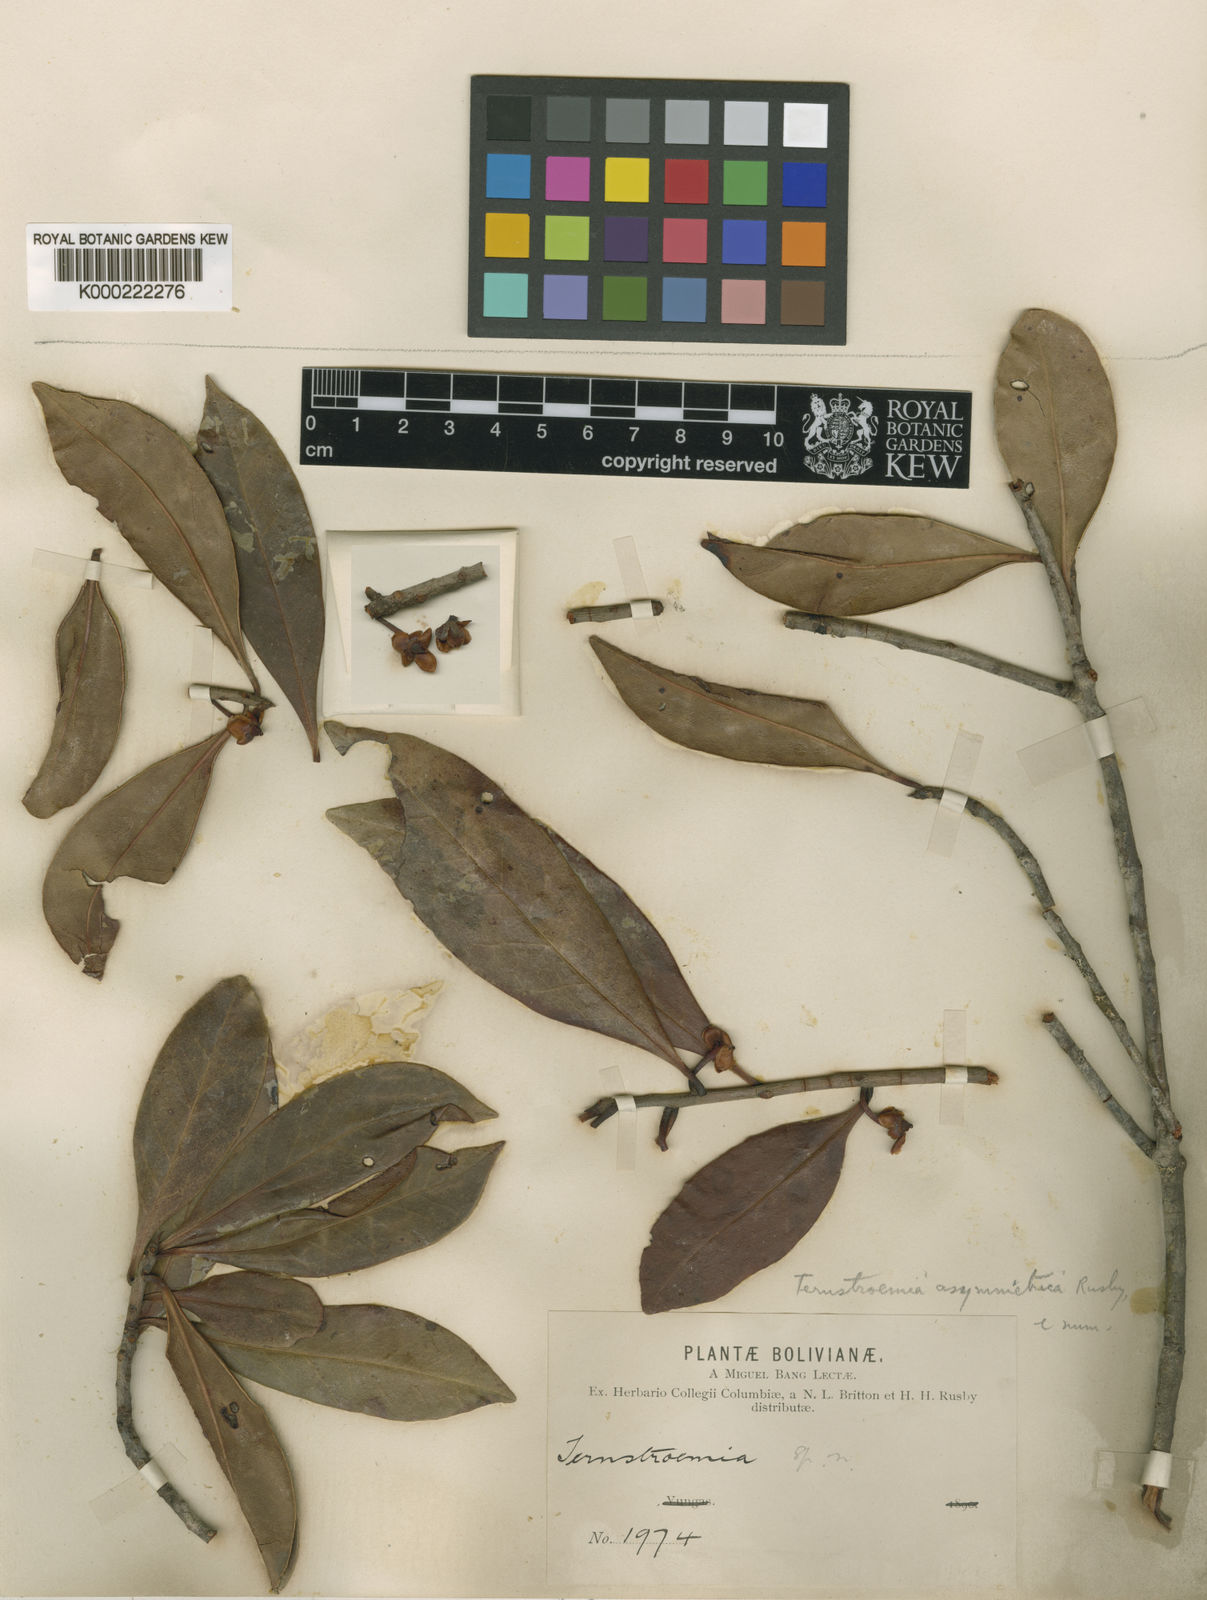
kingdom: Plantae
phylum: Tracheophyta
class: Magnoliopsida
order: Ericales
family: Pentaphylacaceae
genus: Ternstroemia
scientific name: Ternstroemia asymmetrica
